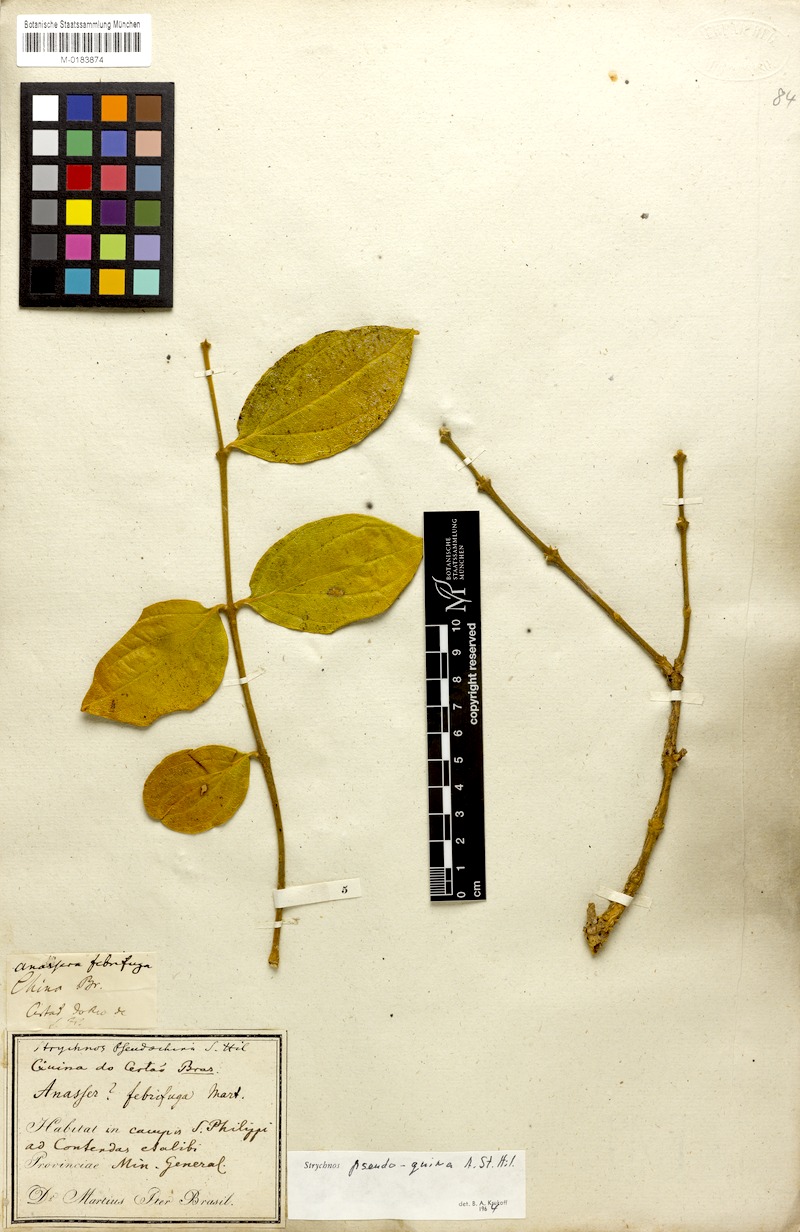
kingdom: Plantae
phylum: Tracheophyta
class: Magnoliopsida
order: Gentianales
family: Loganiaceae
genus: Strychnos
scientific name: Strychnos pseudoquina
